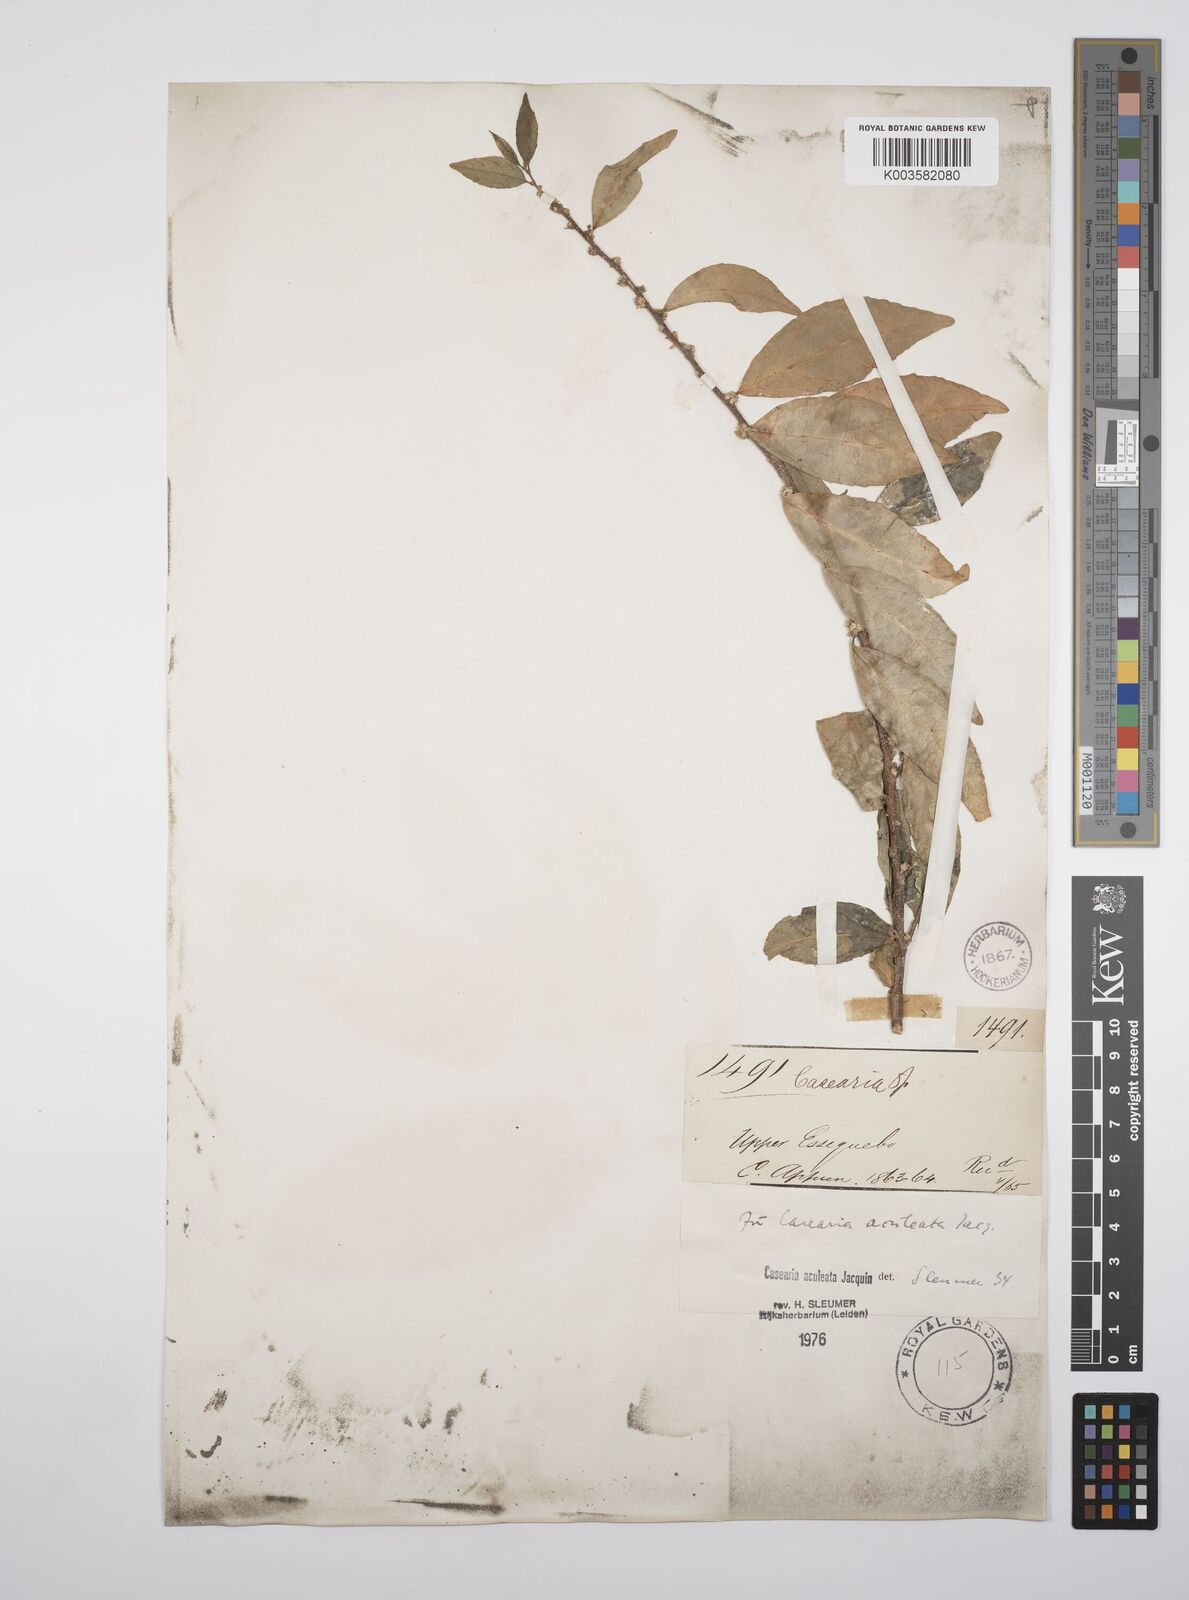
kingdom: Plantae
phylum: Tracheophyta
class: Magnoliopsida
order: Malpighiales
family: Salicaceae
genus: Casearia
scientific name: Casearia aculeata
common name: Cockspur
